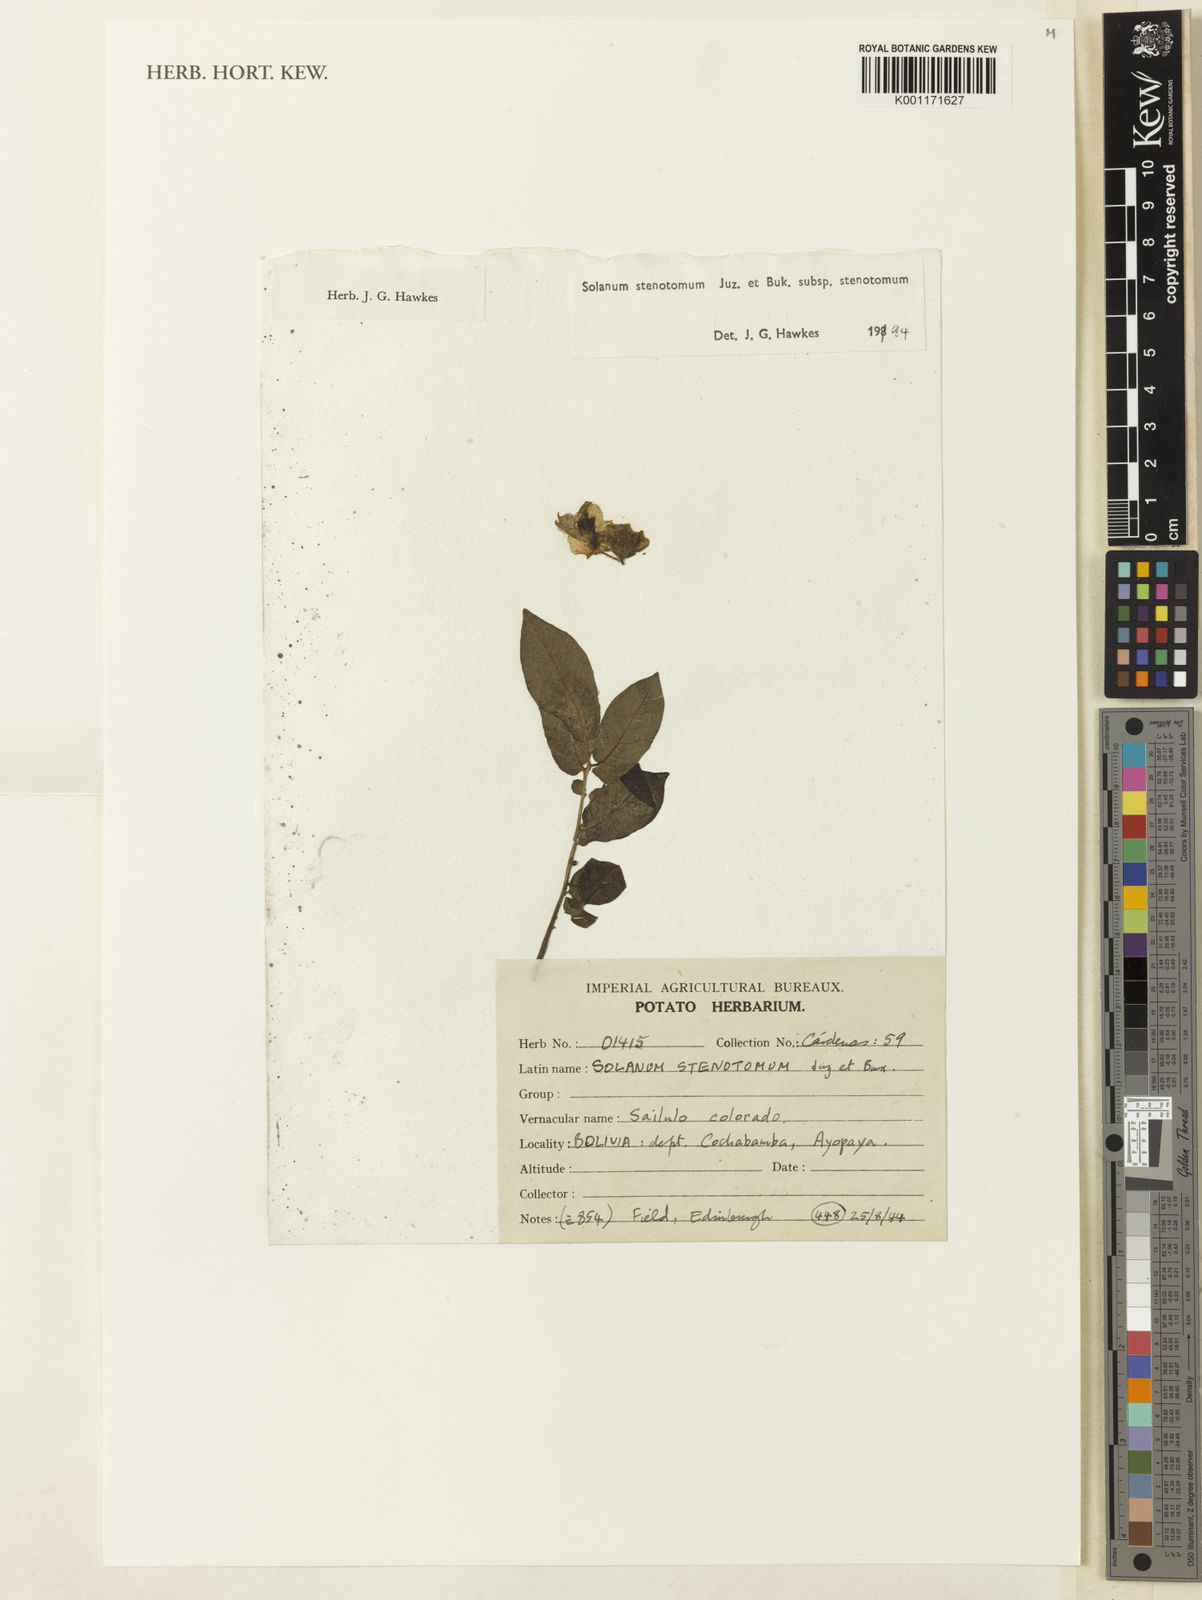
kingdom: Plantae
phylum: Tracheophyta
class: Magnoliopsida
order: Solanales
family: Solanaceae
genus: Solanum
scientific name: Solanum tuberosum
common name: Potato
